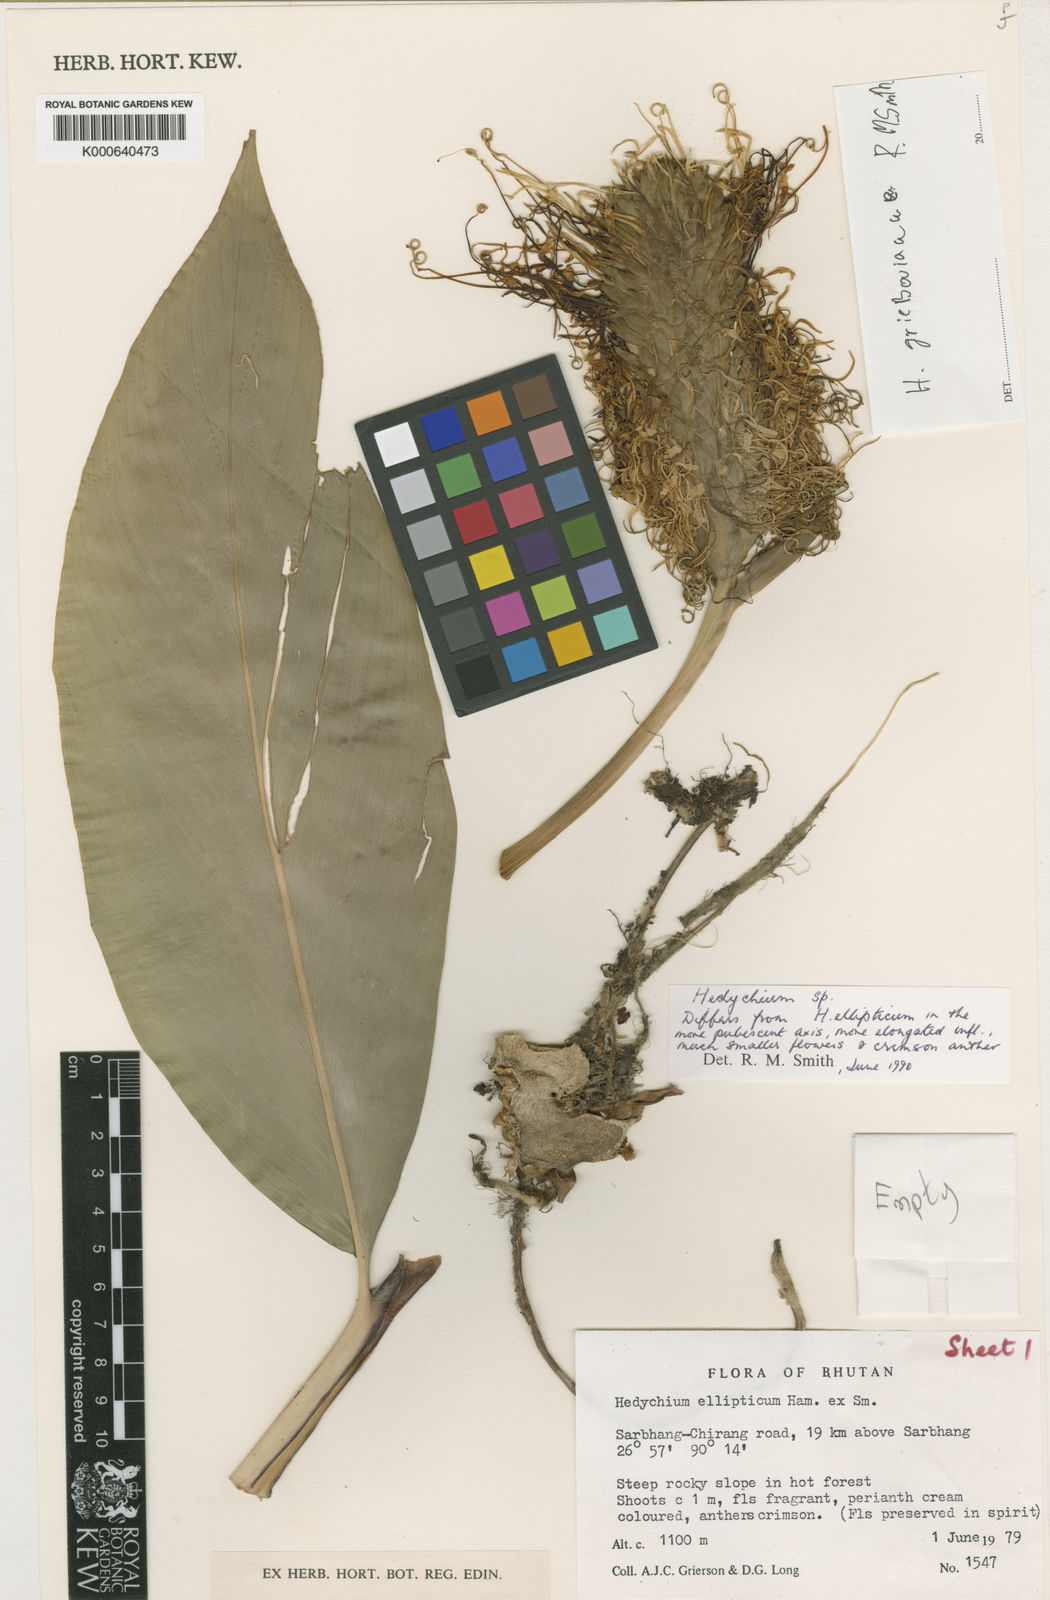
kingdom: Plantae
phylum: Tracheophyta
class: Liliopsida
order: Zingiberales
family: Zingiberaceae
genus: Hedychium
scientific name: Hedychium griersonianum
